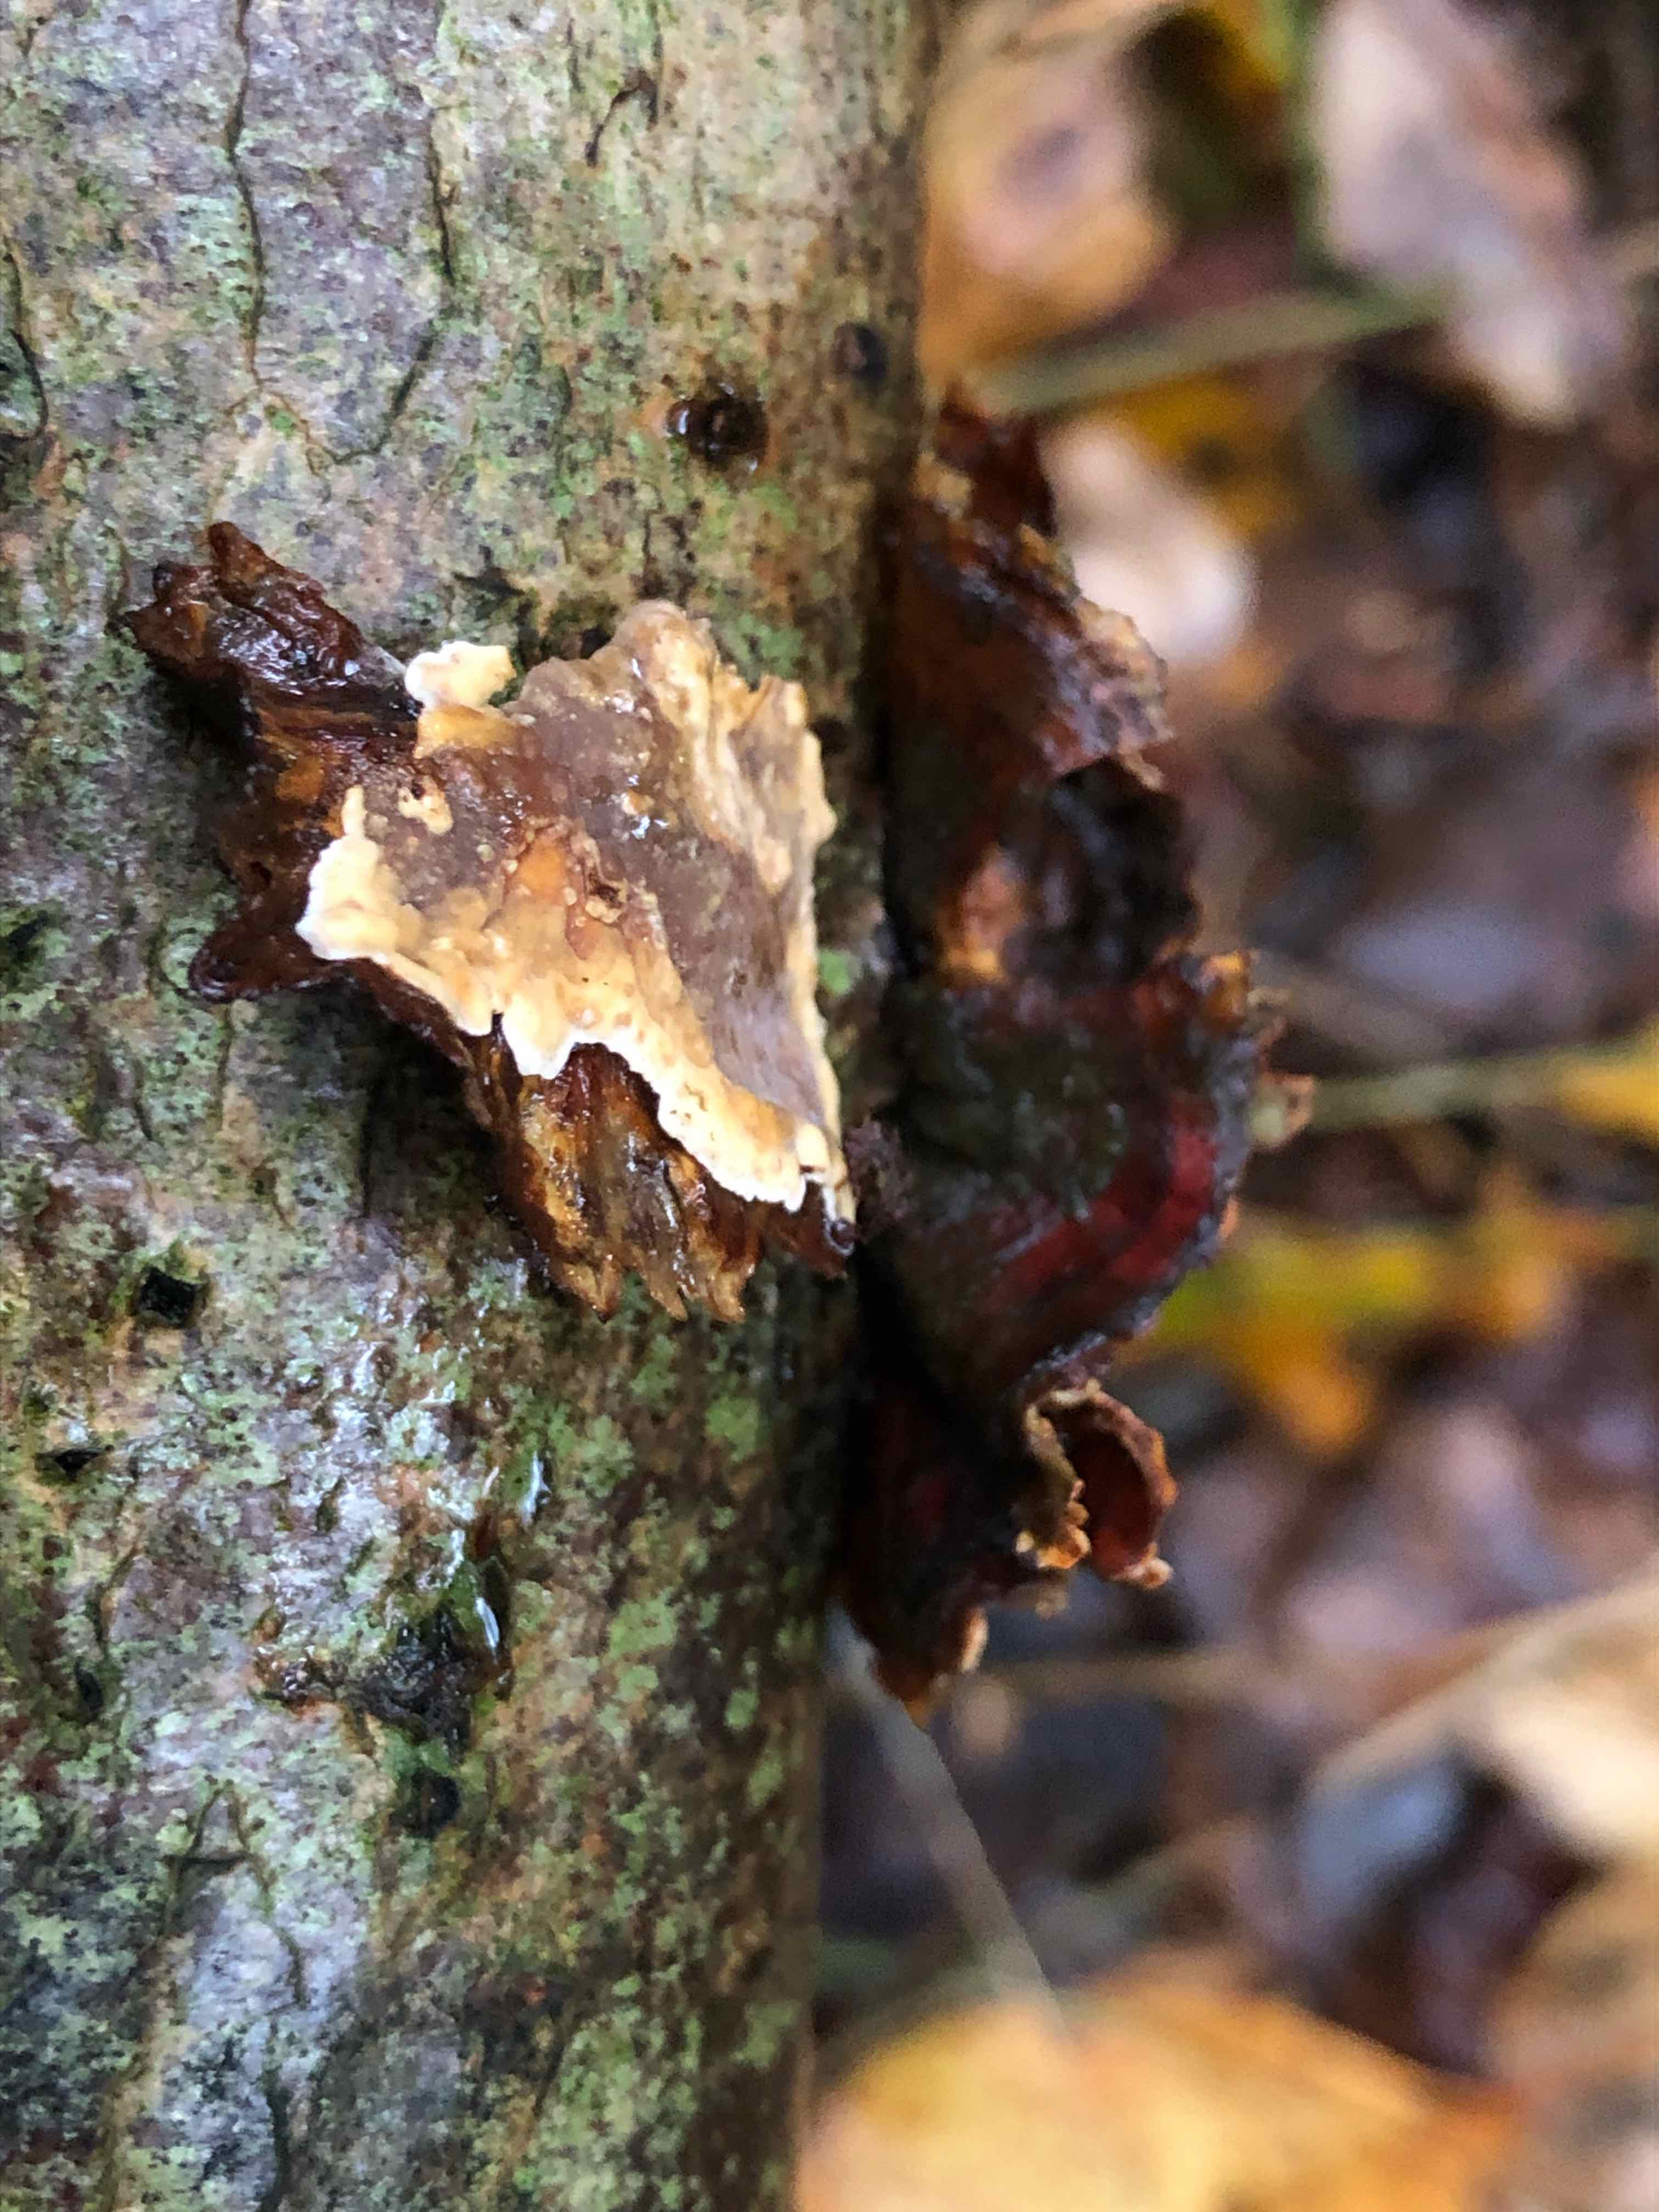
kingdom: Fungi
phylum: Basidiomycota
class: Agaricomycetes
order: Russulales
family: Stereaceae
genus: Stereum
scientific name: Stereum hirsutum
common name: håret lædersvamp
